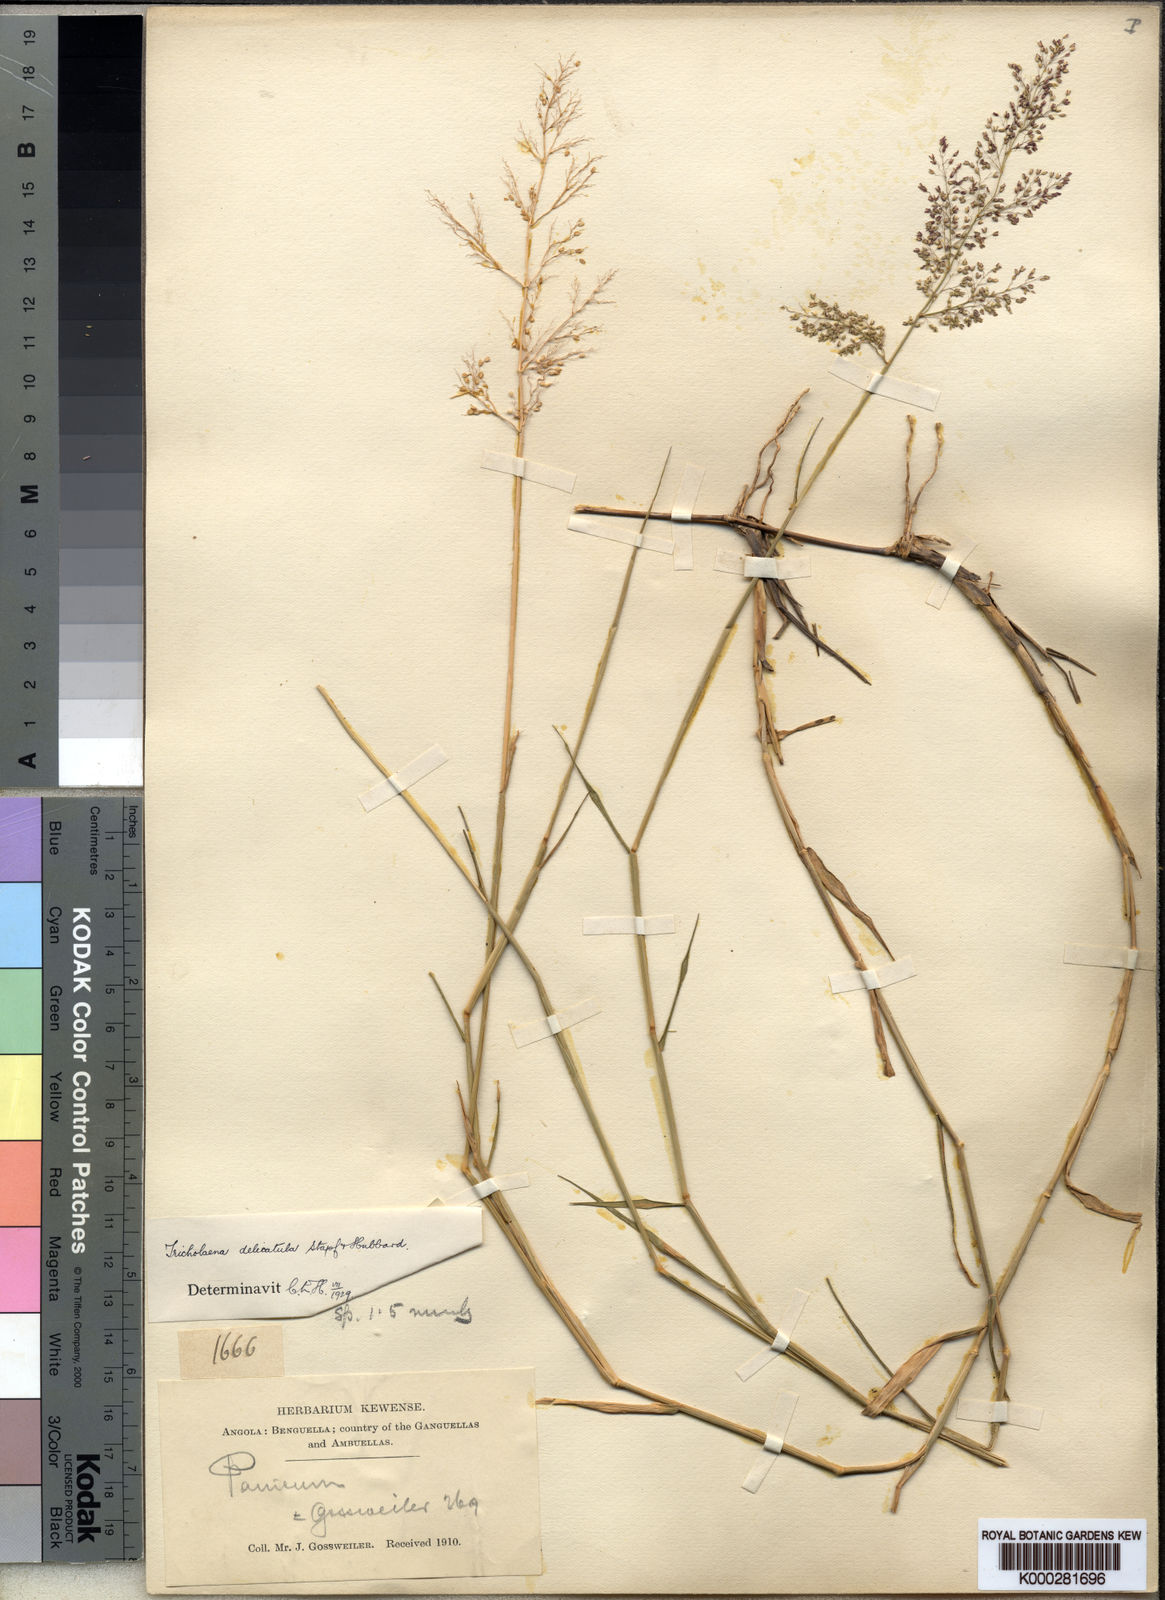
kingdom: Plantae
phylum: Tracheophyta
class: Liliopsida
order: Poales
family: Poaceae
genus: Tricholaena
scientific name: Tricholaena
